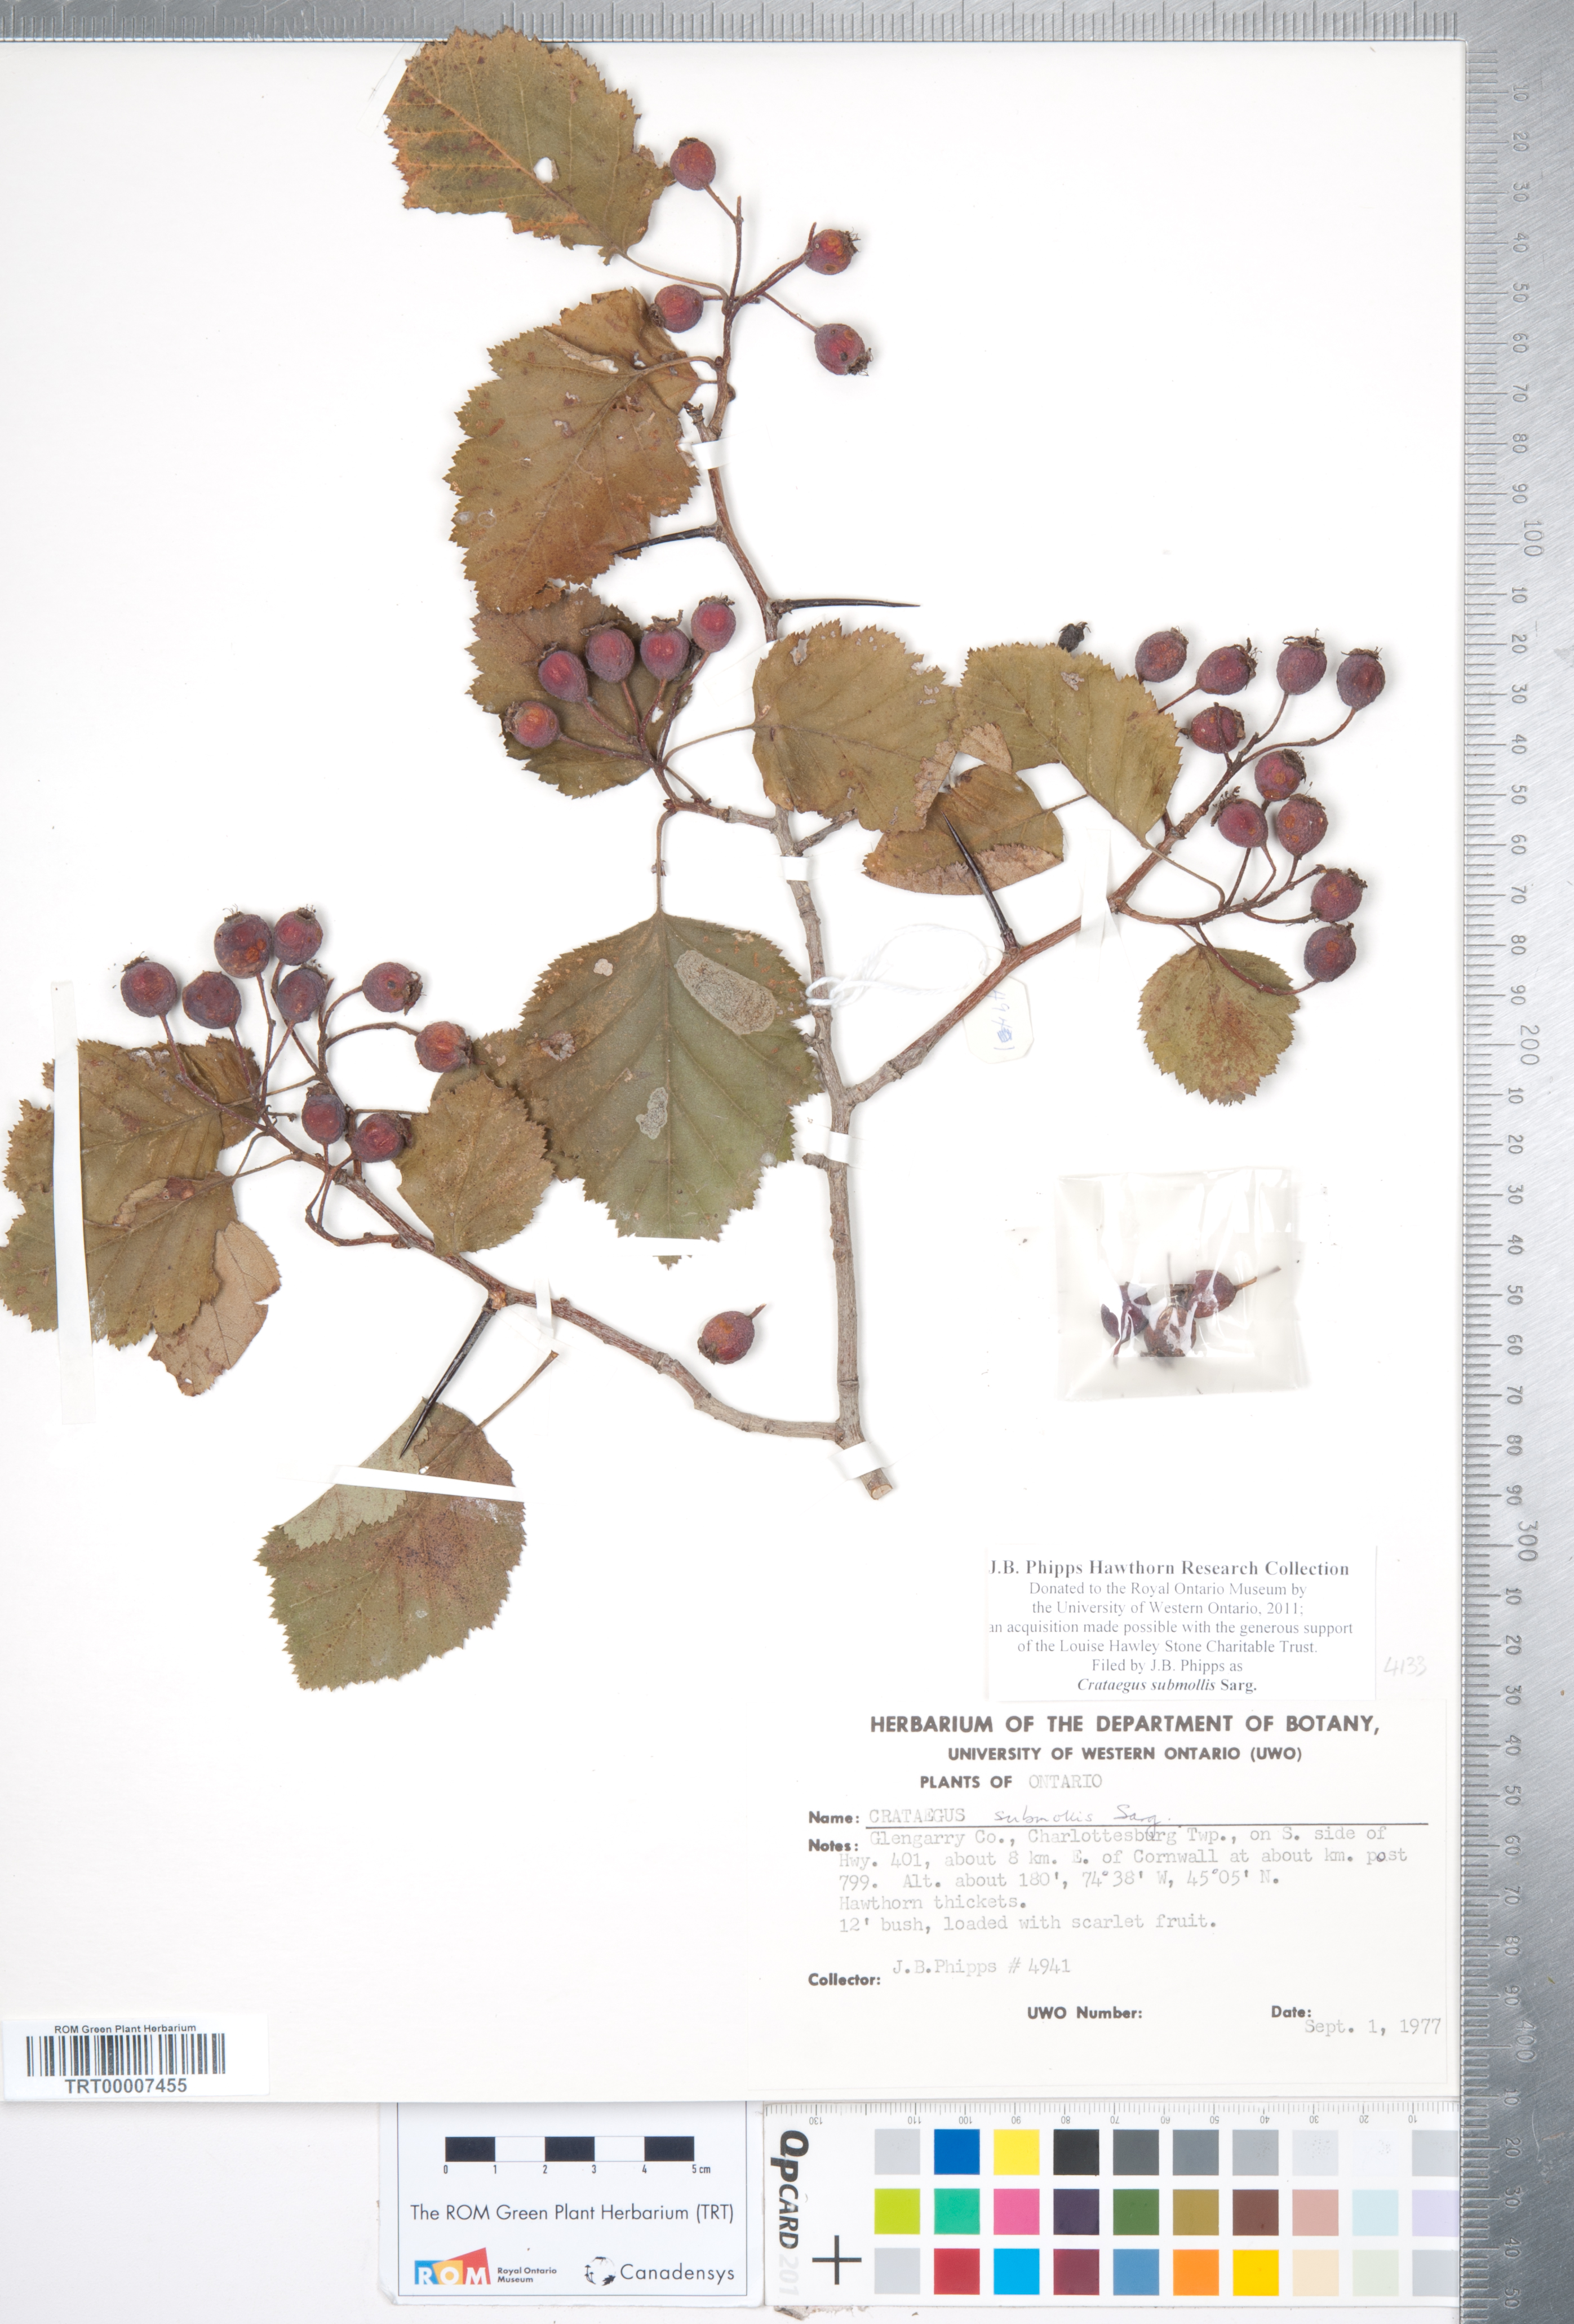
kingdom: Plantae
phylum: Tracheophyta
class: Magnoliopsida
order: Rosales
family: Rosaceae
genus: Crataegus
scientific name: Crataegus submollis
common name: Hairy cockspurthorn
